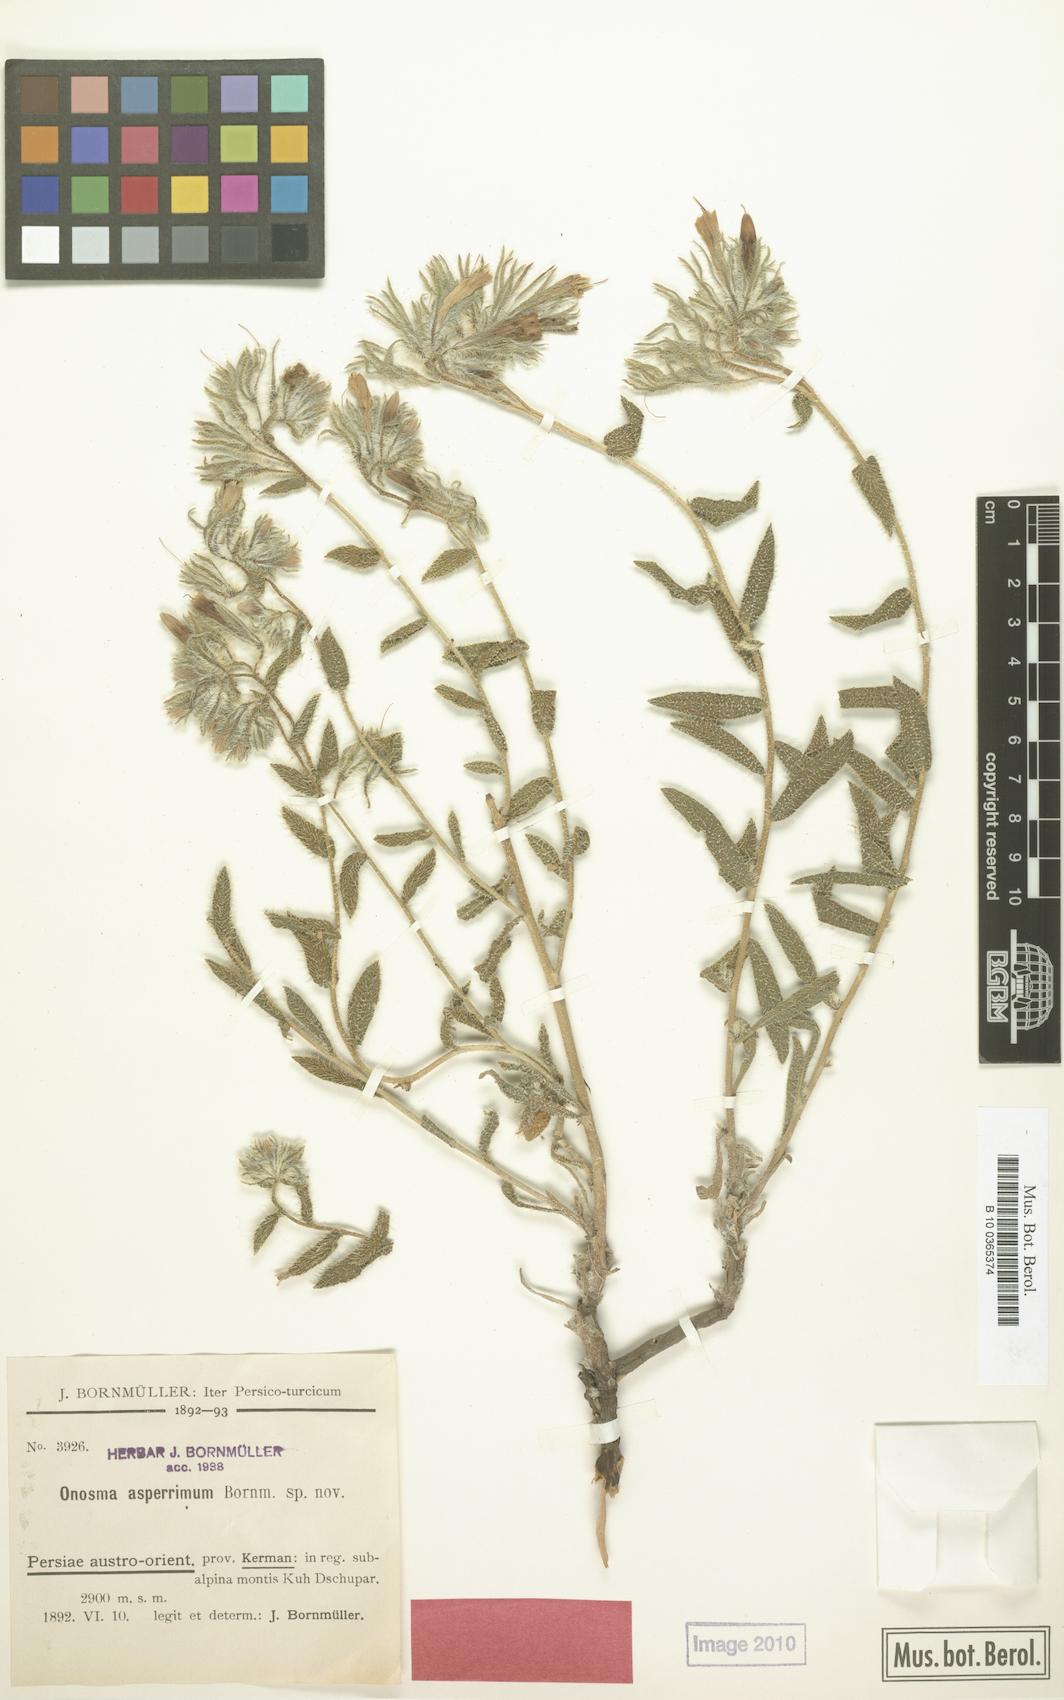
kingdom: Plantae
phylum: Tracheophyta
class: Magnoliopsida
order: Boraginales
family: Boraginaceae
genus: Onosma
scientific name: Onosma asperrima
